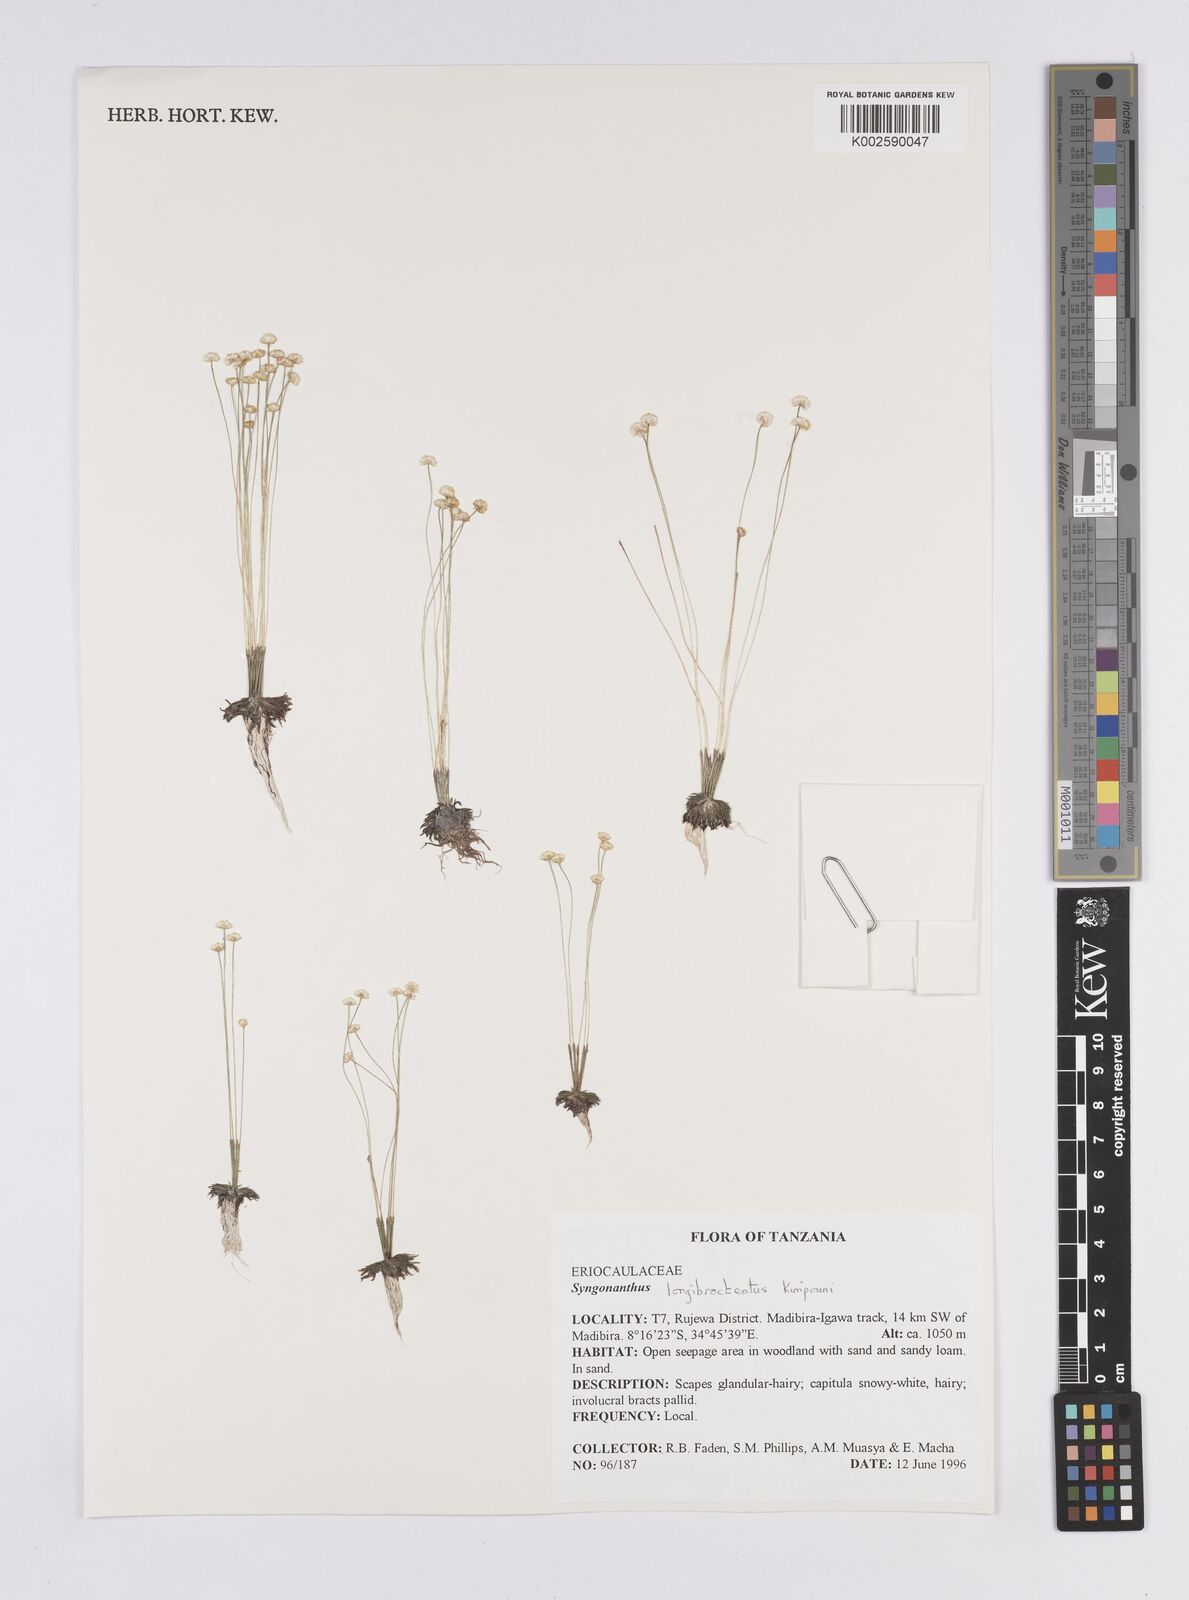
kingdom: Plantae
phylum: Tracheophyta
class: Liliopsida
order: Poales
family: Eriocaulaceae
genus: Syngonanthus
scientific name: Syngonanthus longibracteatus
